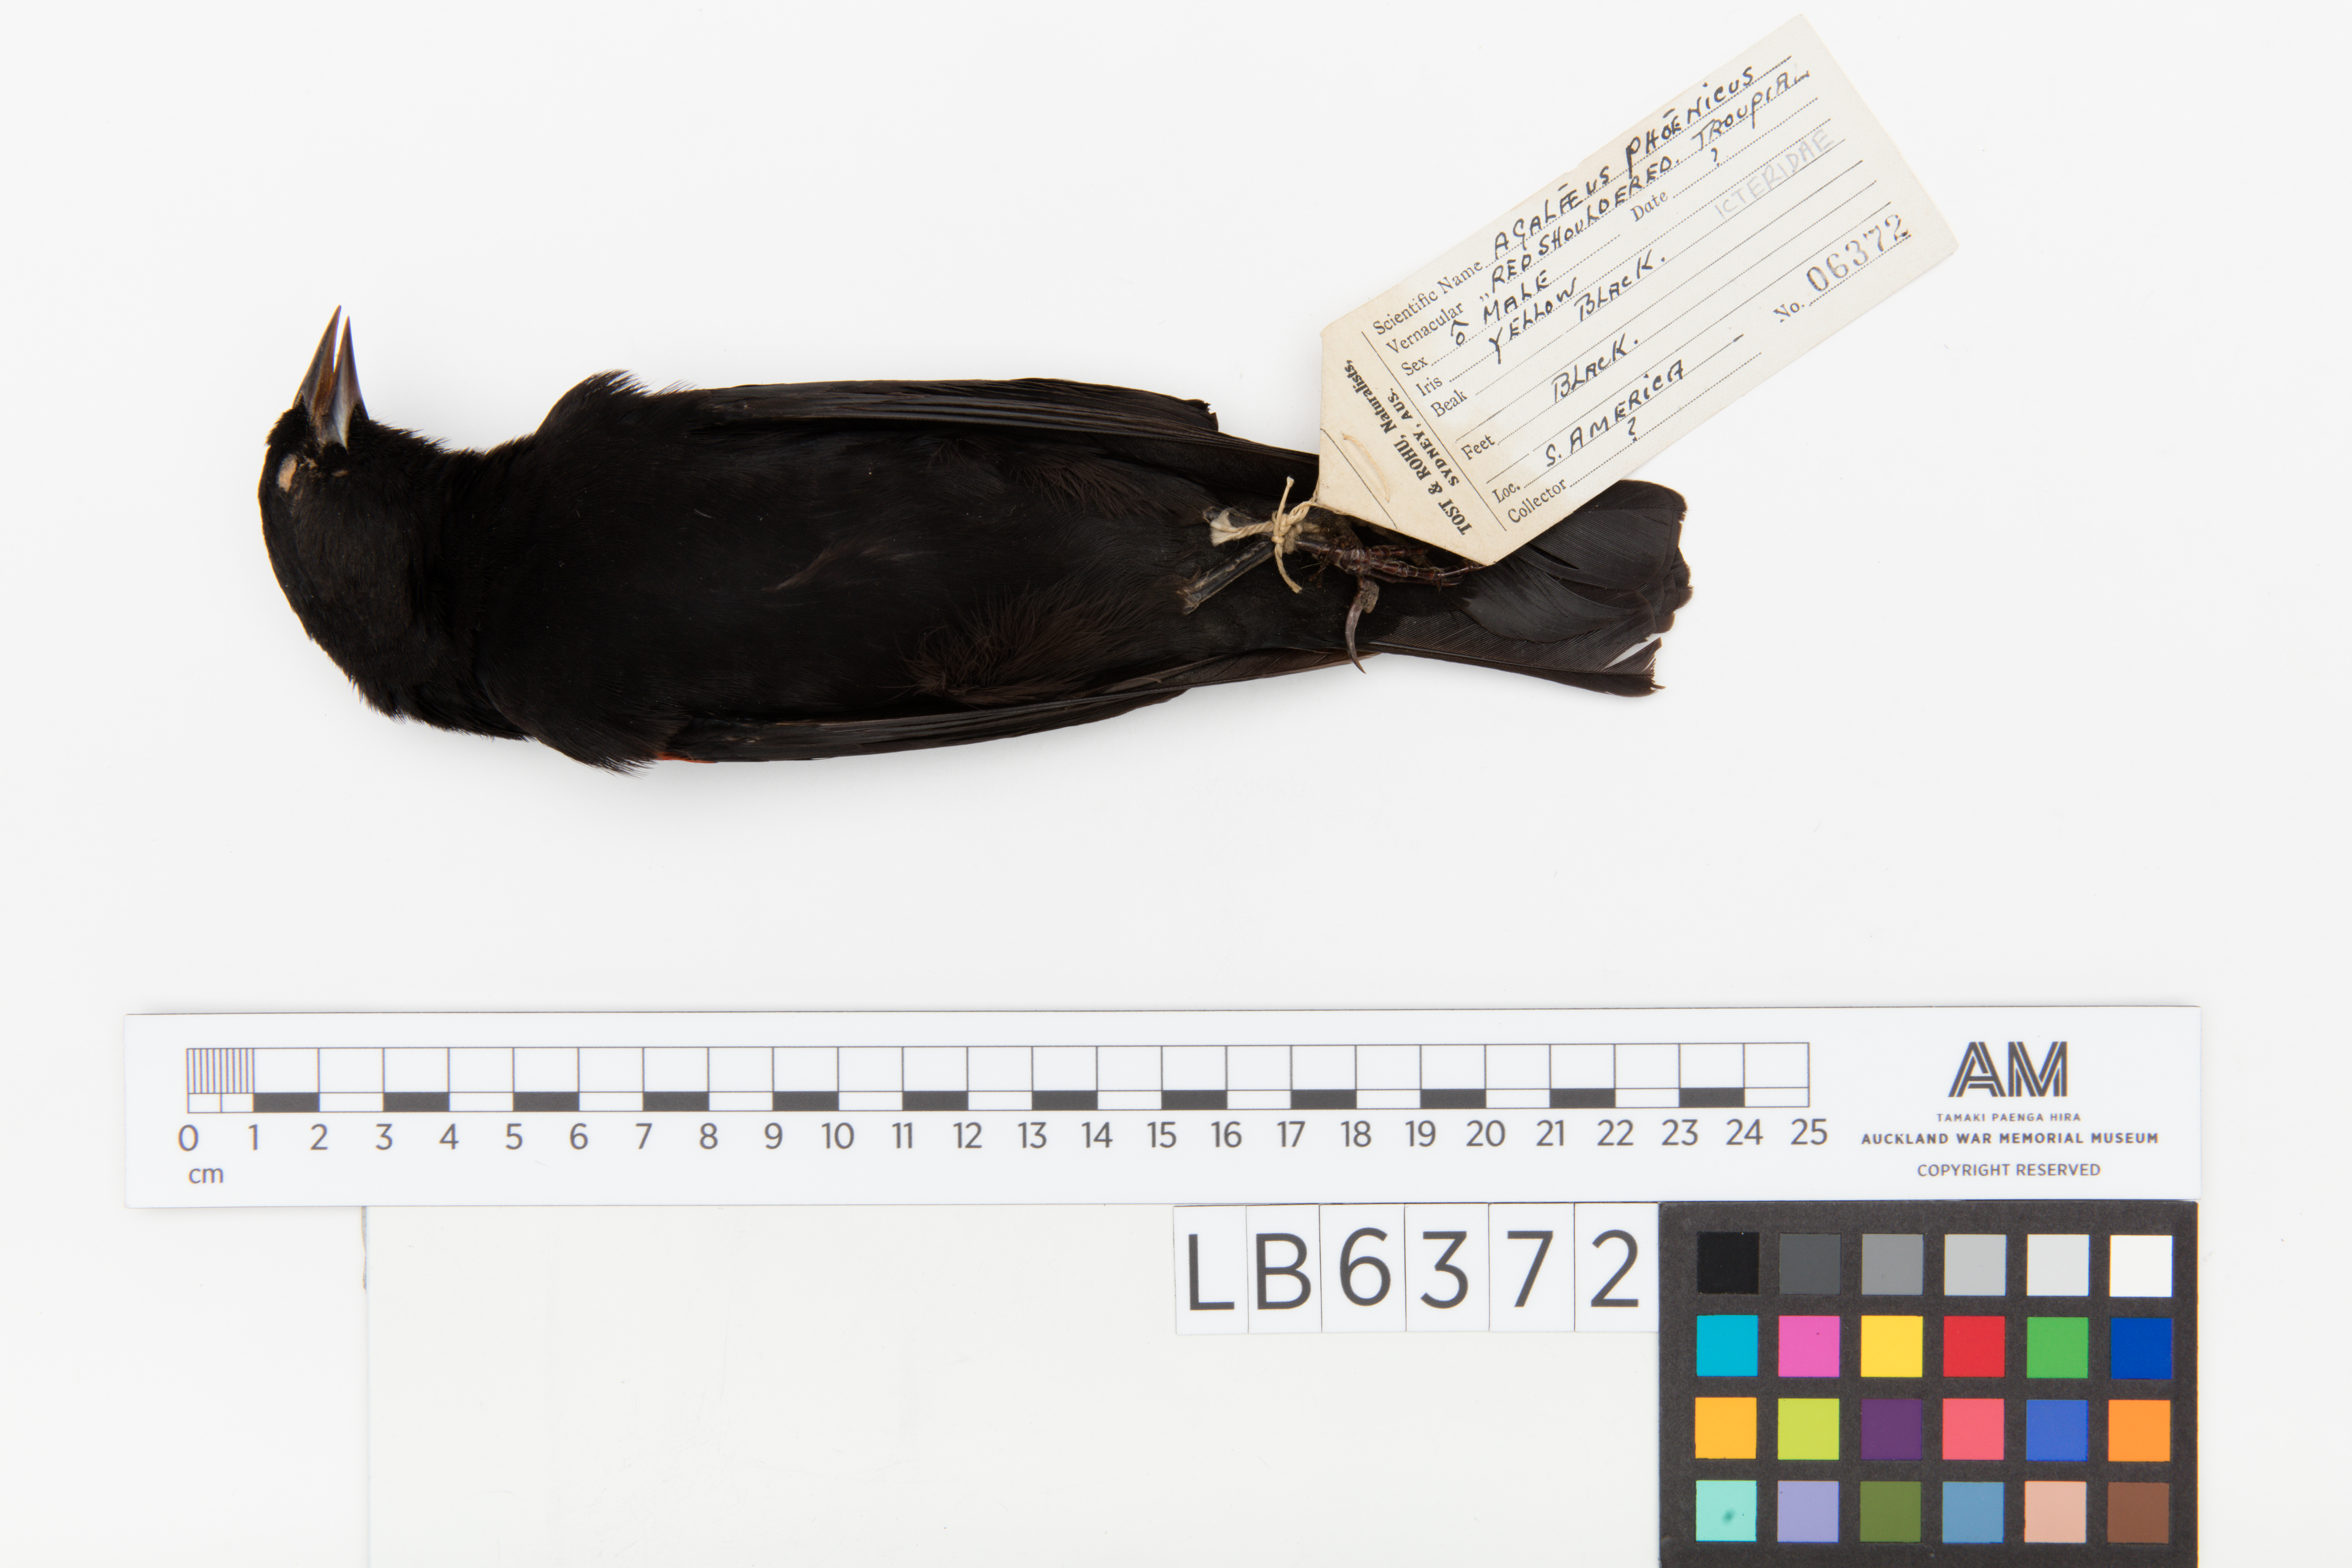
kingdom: Animalia
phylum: Chordata
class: Aves
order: Passeriformes
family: Icteridae
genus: Agelaius
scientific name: Agelaius phoeniceus
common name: Red-winged blackbird
